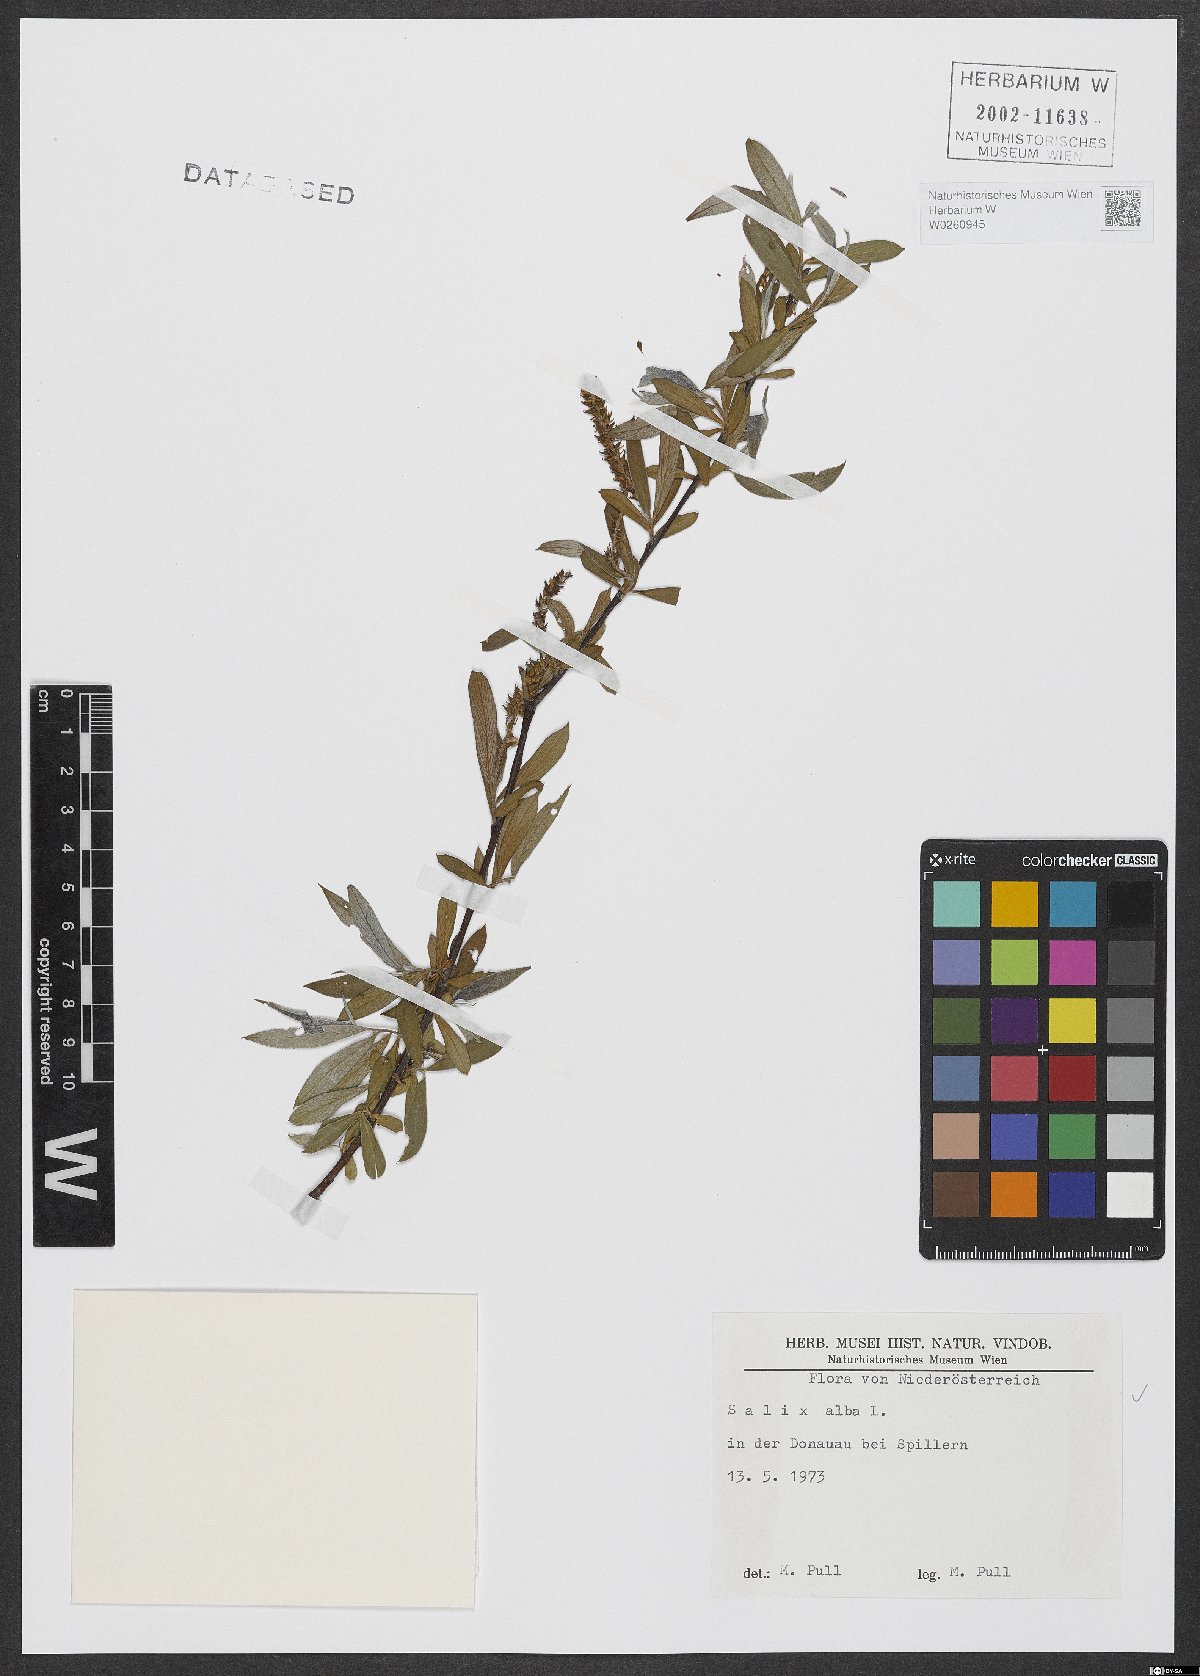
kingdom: Plantae
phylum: Tracheophyta
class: Magnoliopsida
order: Malpighiales
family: Salicaceae
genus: Salix
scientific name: Salix alba
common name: White willow
